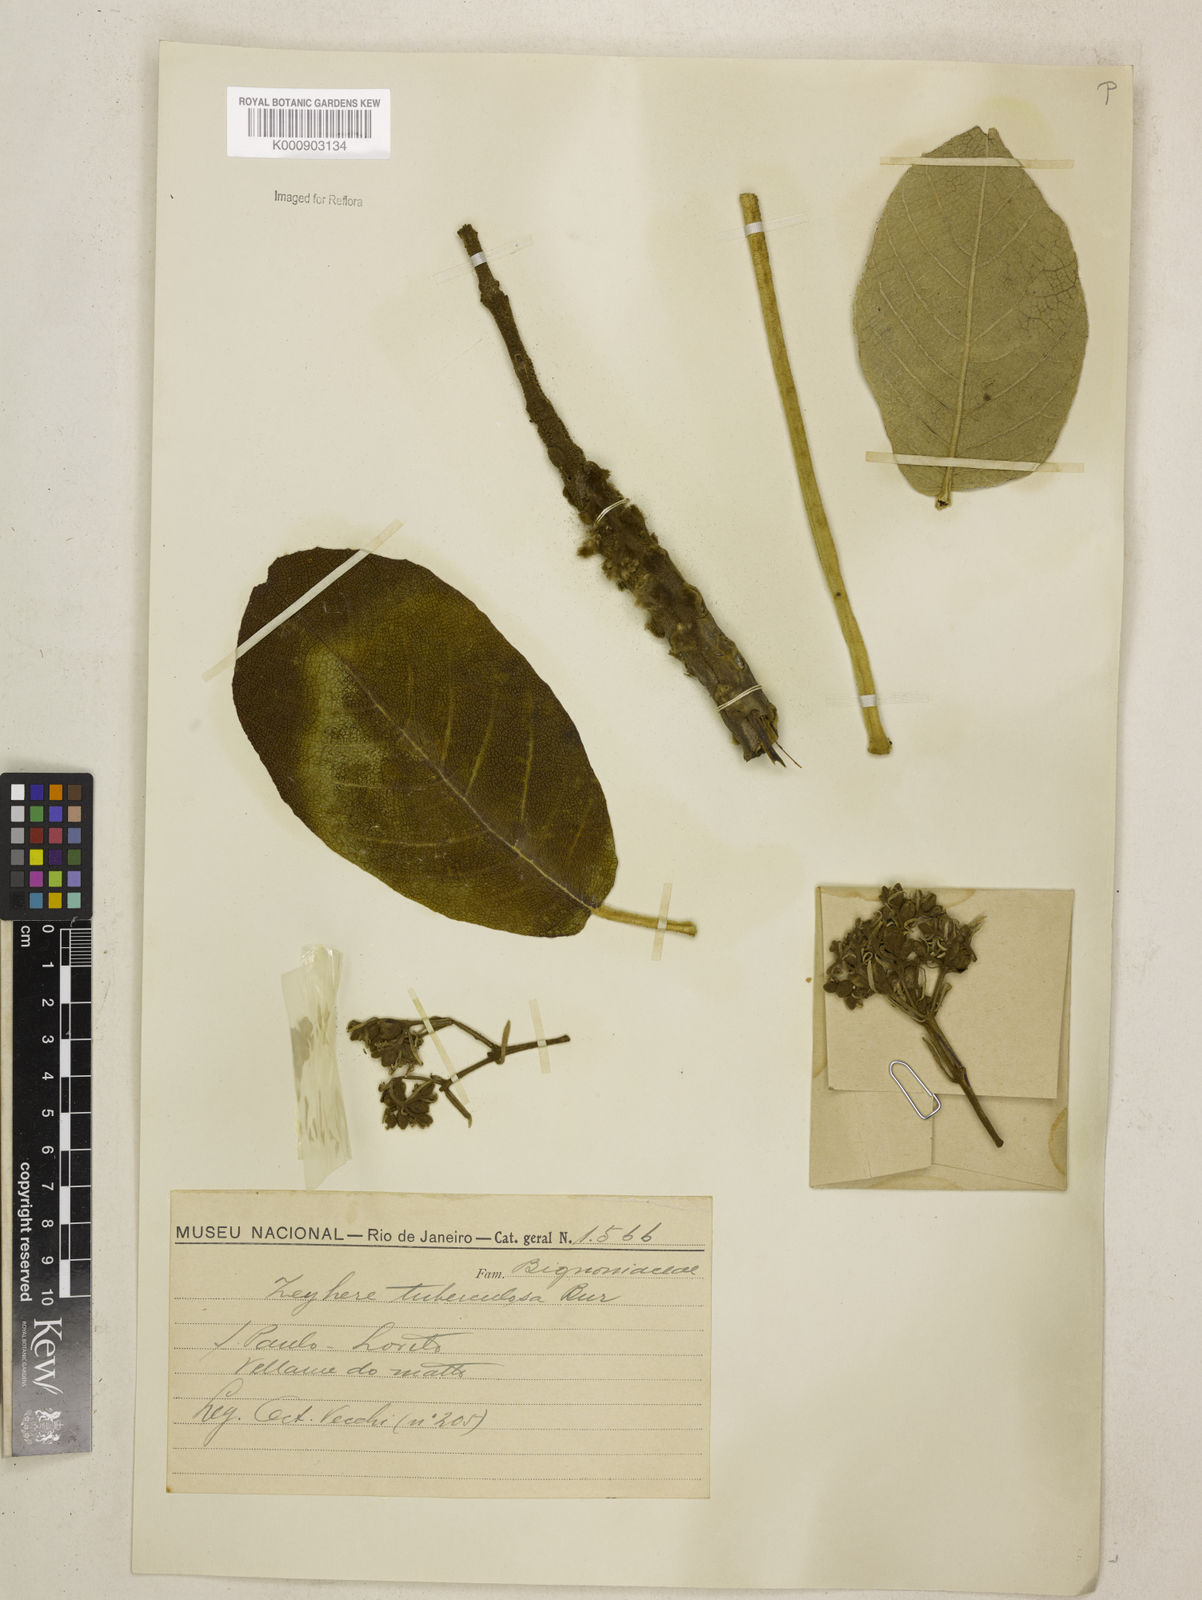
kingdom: Plantae
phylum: Tracheophyta
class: Magnoliopsida
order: Lamiales
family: Bignoniaceae
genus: Zeyheria
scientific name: Zeyheria
